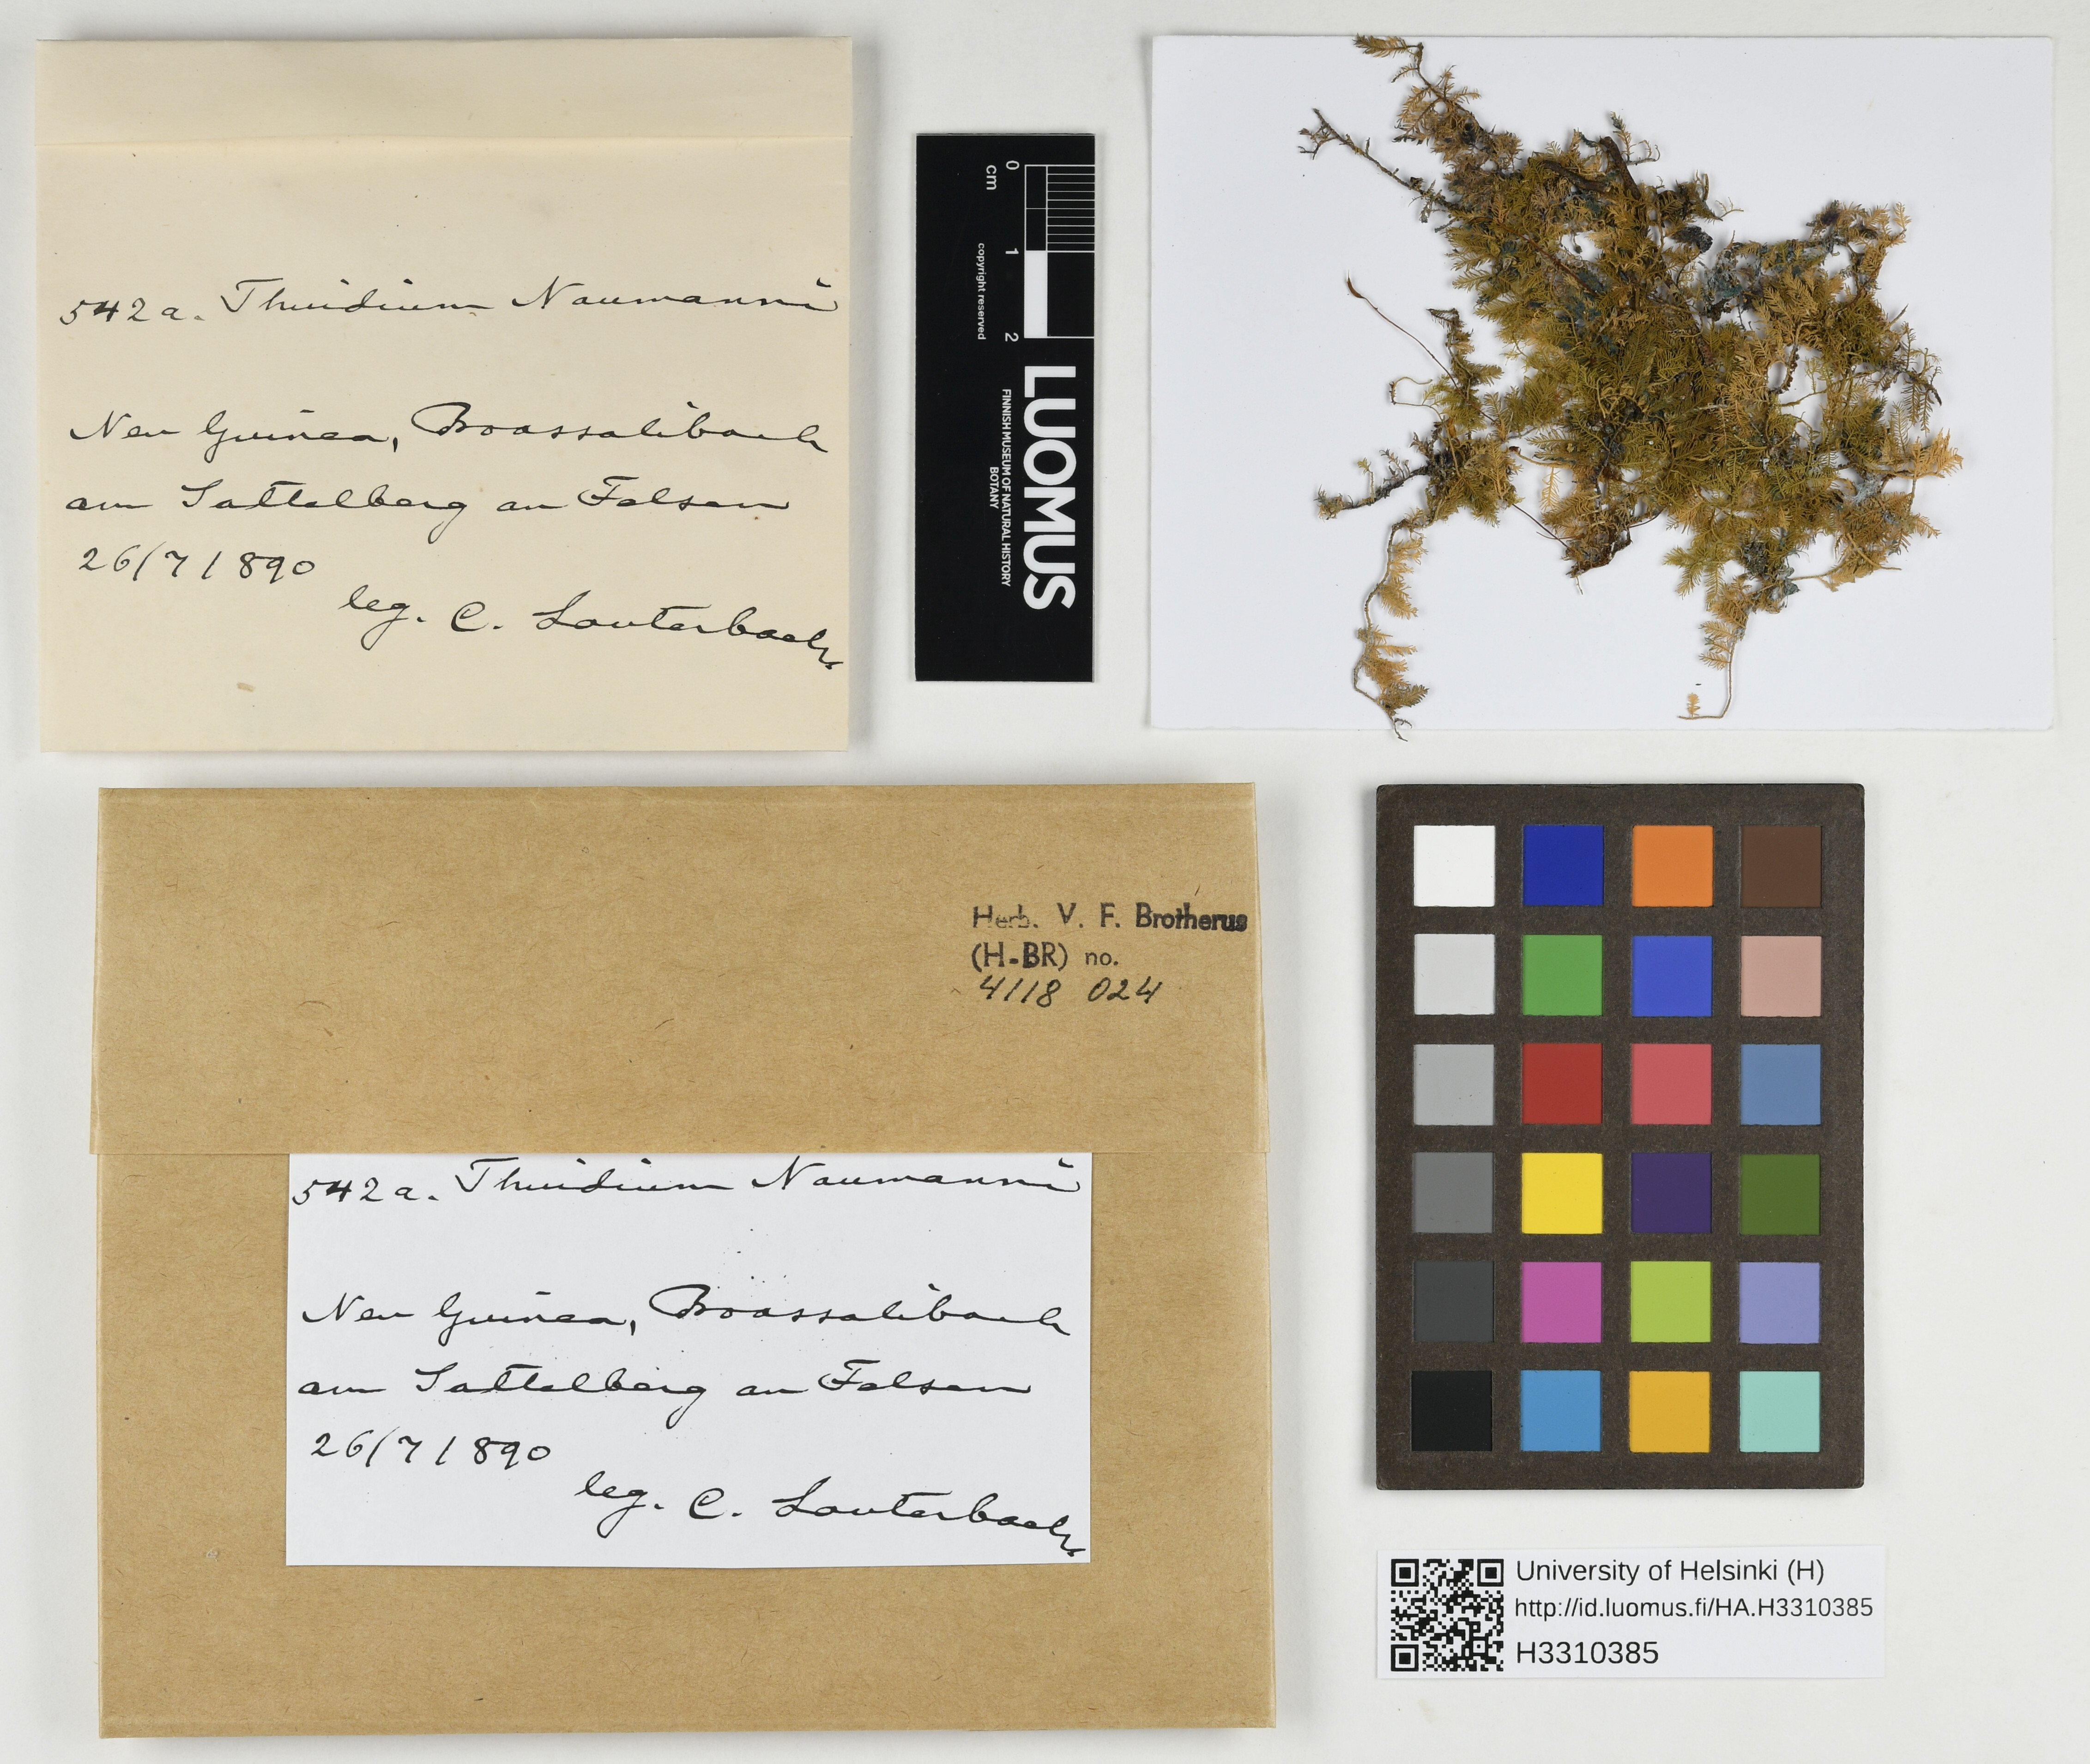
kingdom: Plantae
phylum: Bryophyta
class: Bryopsida
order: Hypnales
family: Thuidiaceae
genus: Thuidium
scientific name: Thuidium plumulosum
